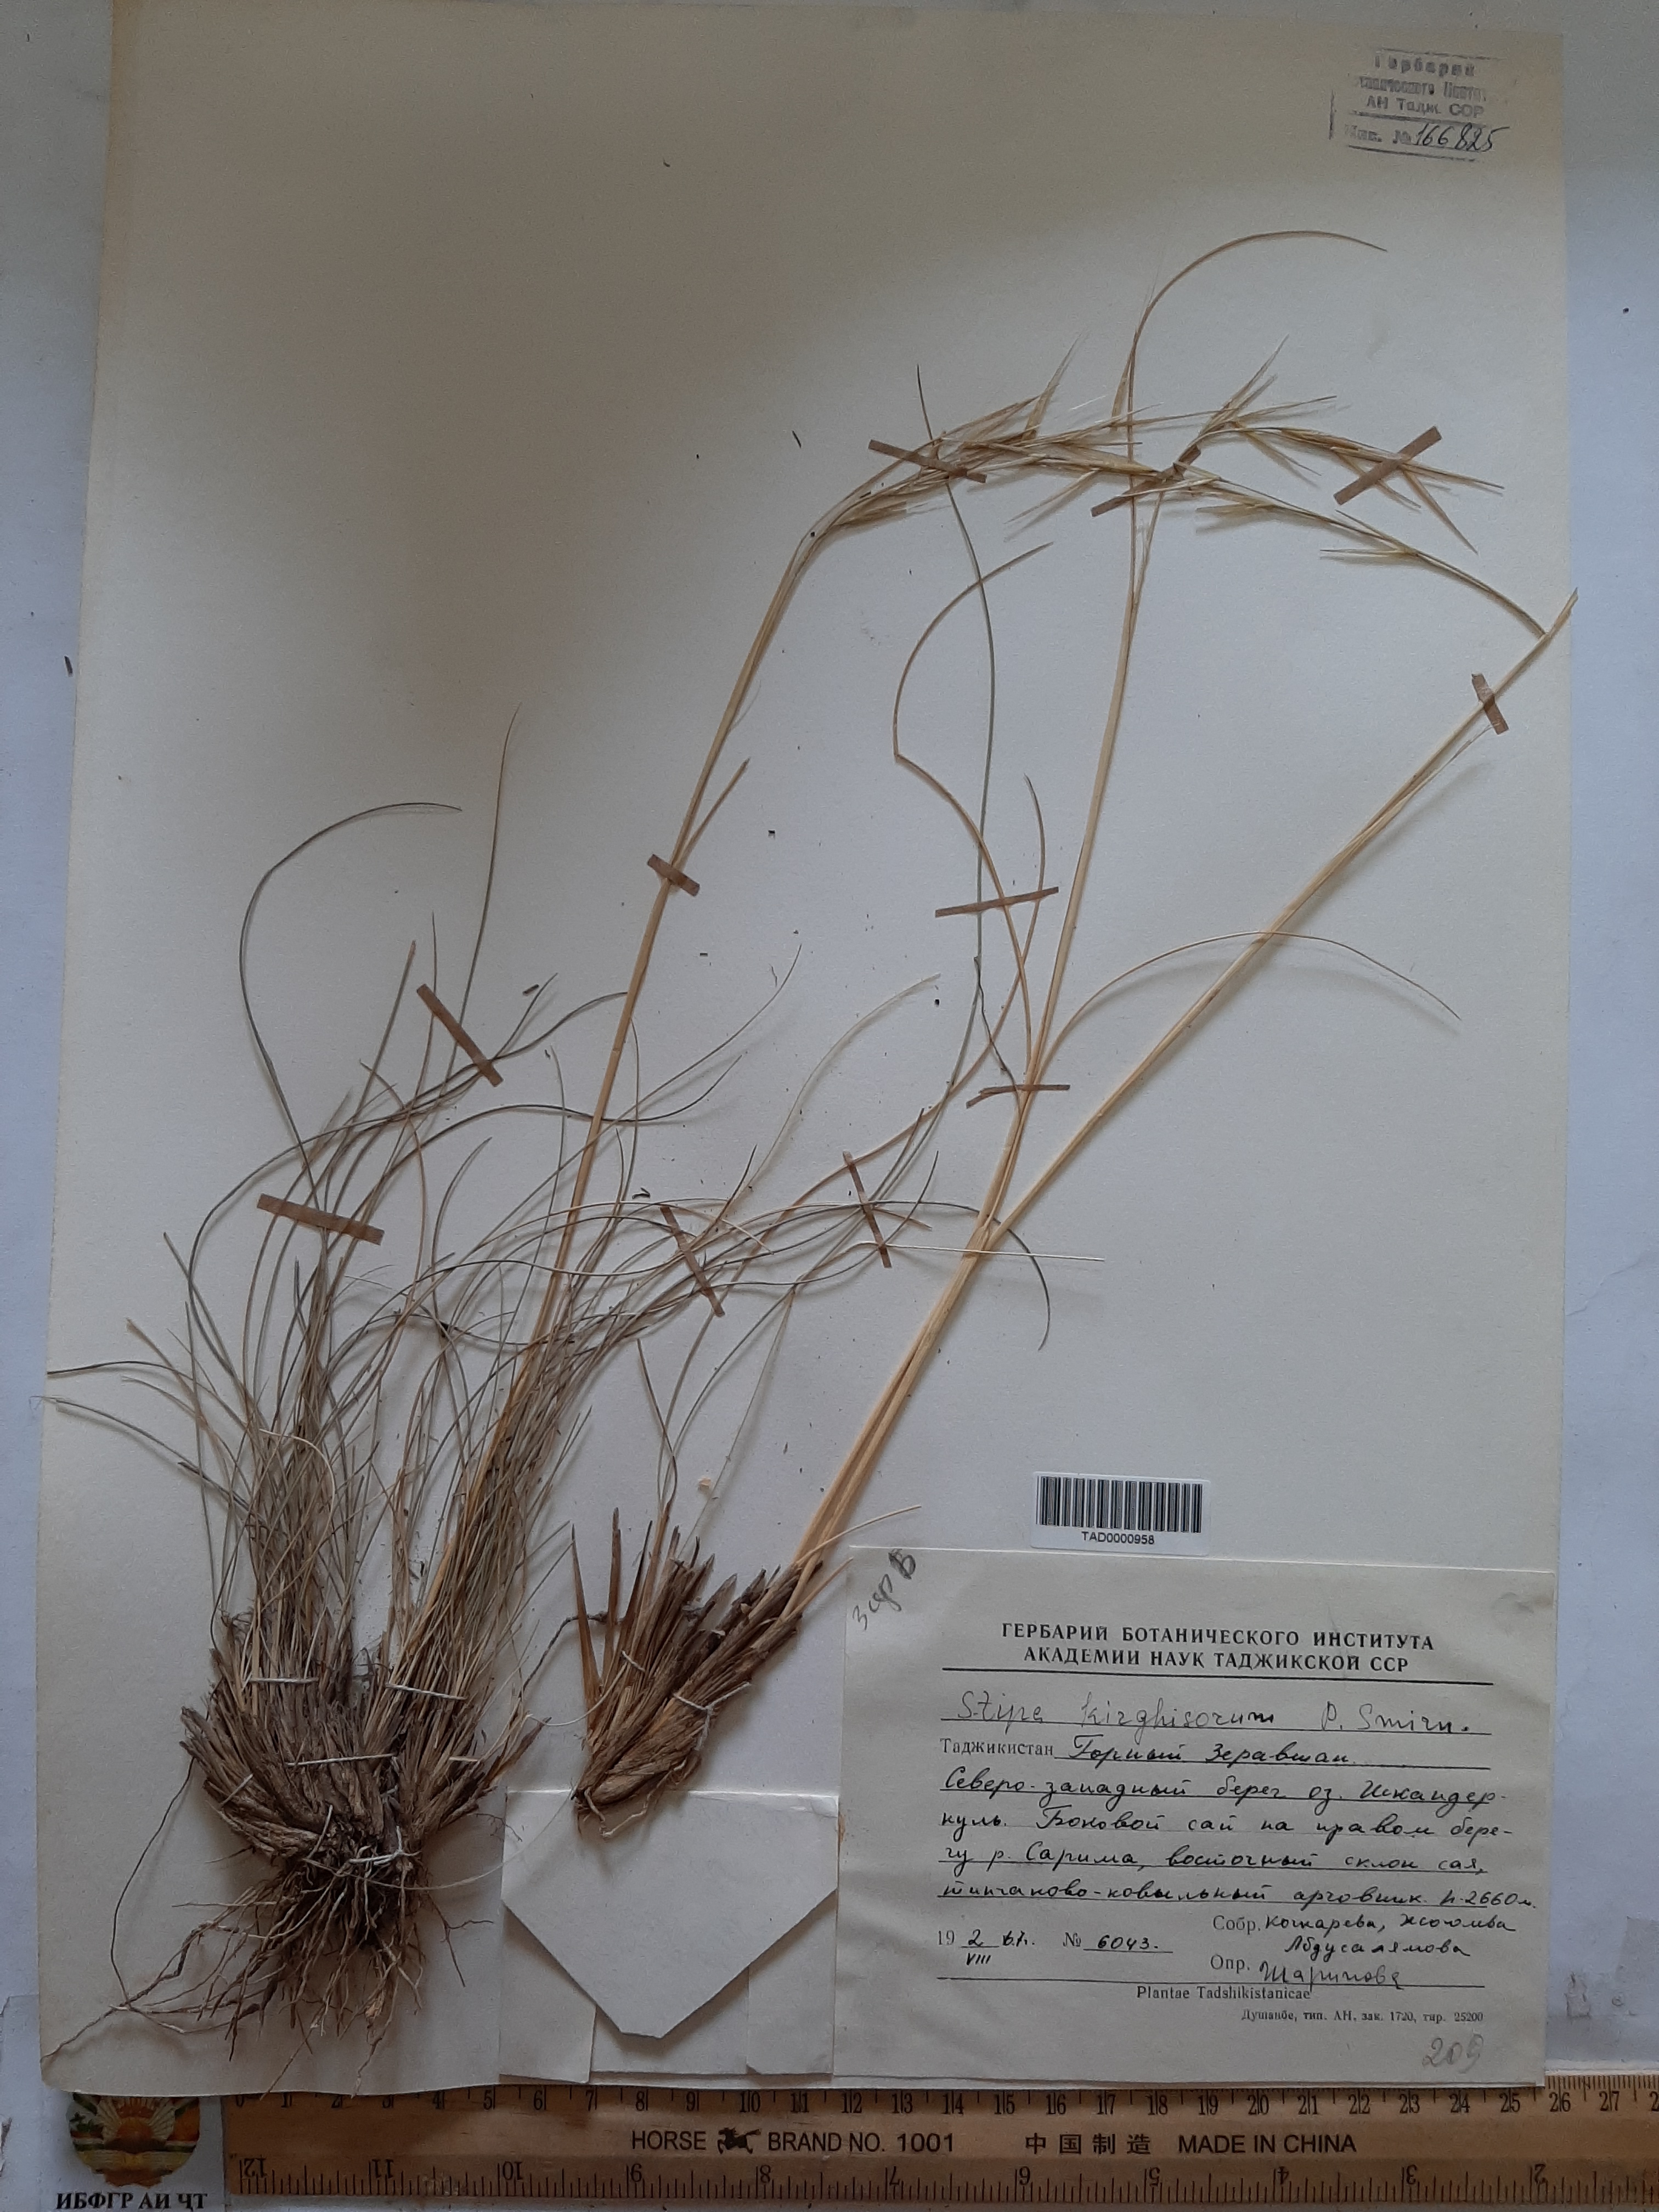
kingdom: Plantae
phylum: Tracheophyta
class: Liliopsida
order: Poales
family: Poaceae
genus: Stipa
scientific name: Stipa kirghisorum
